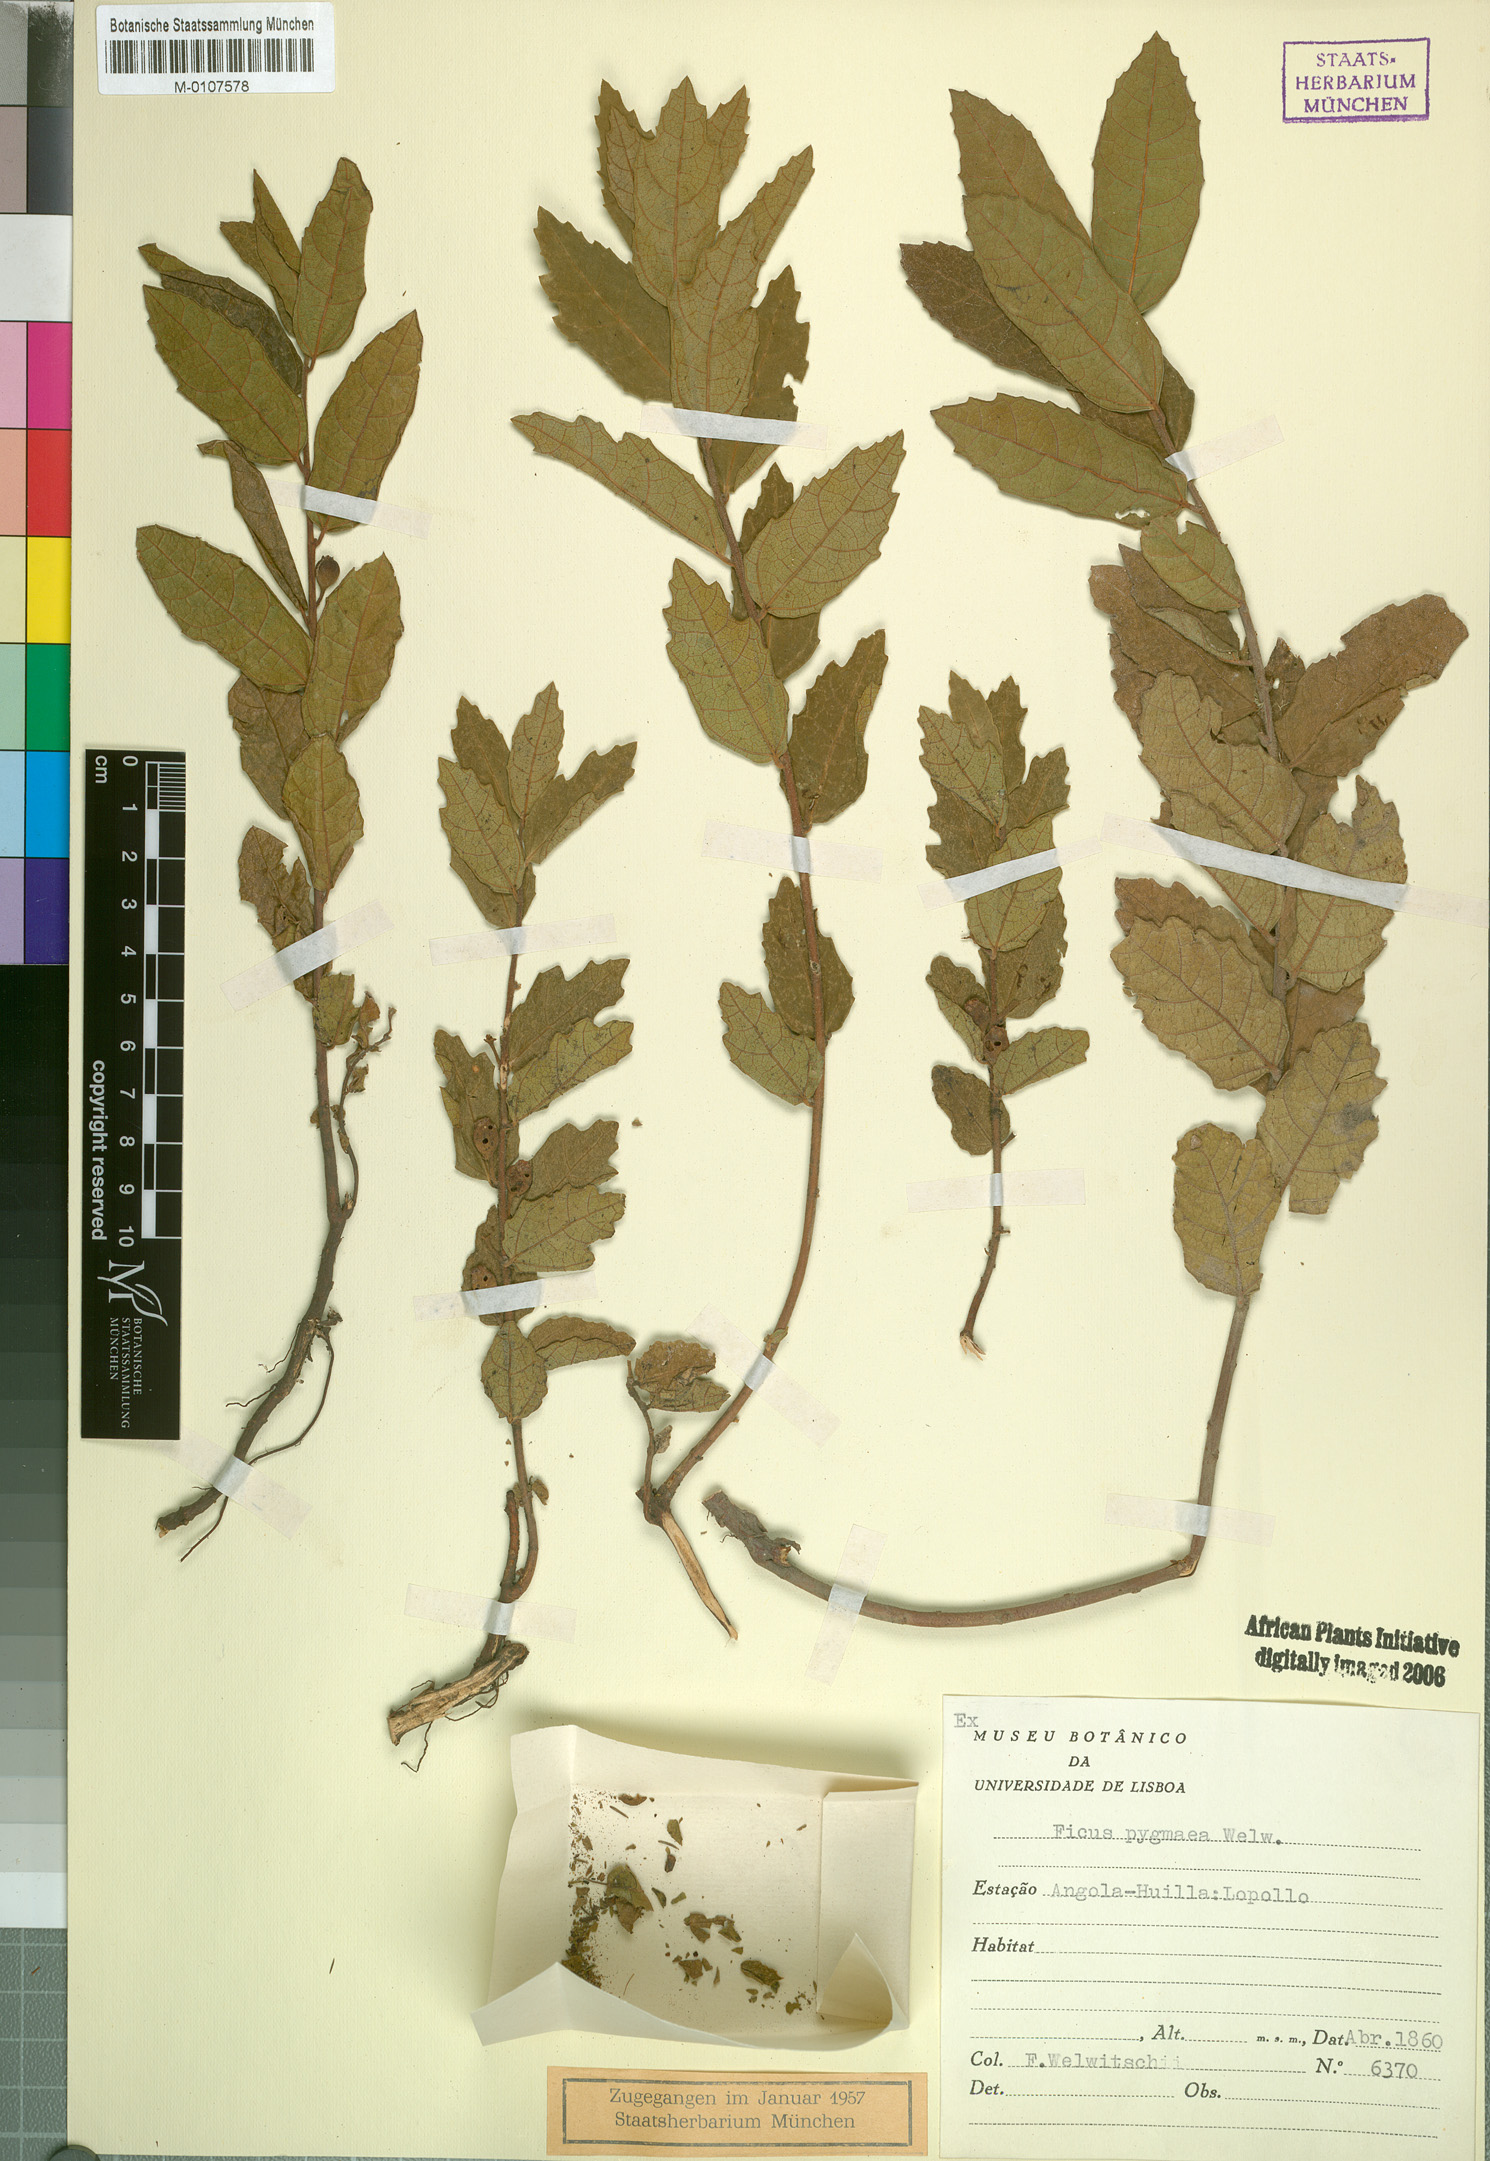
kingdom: Plantae
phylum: Tracheophyta
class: Magnoliopsida
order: Rosales
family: Moraceae
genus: Ficus
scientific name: Ficus pygmaea
